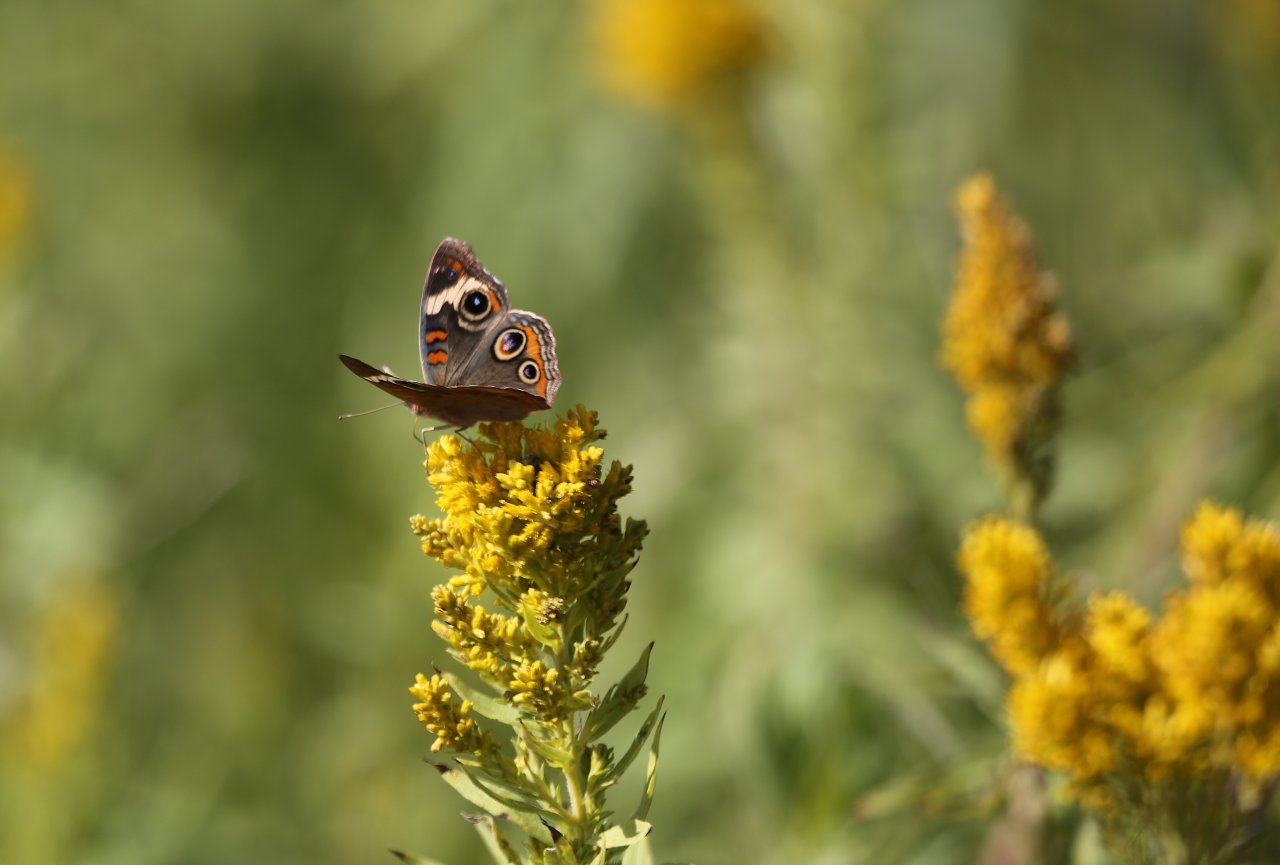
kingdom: Animalia
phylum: Arthropoda
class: Insecta
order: Lepidoptera
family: Nymphalidae
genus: Junonia
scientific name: Junonia coenia
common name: Common Buckeye
